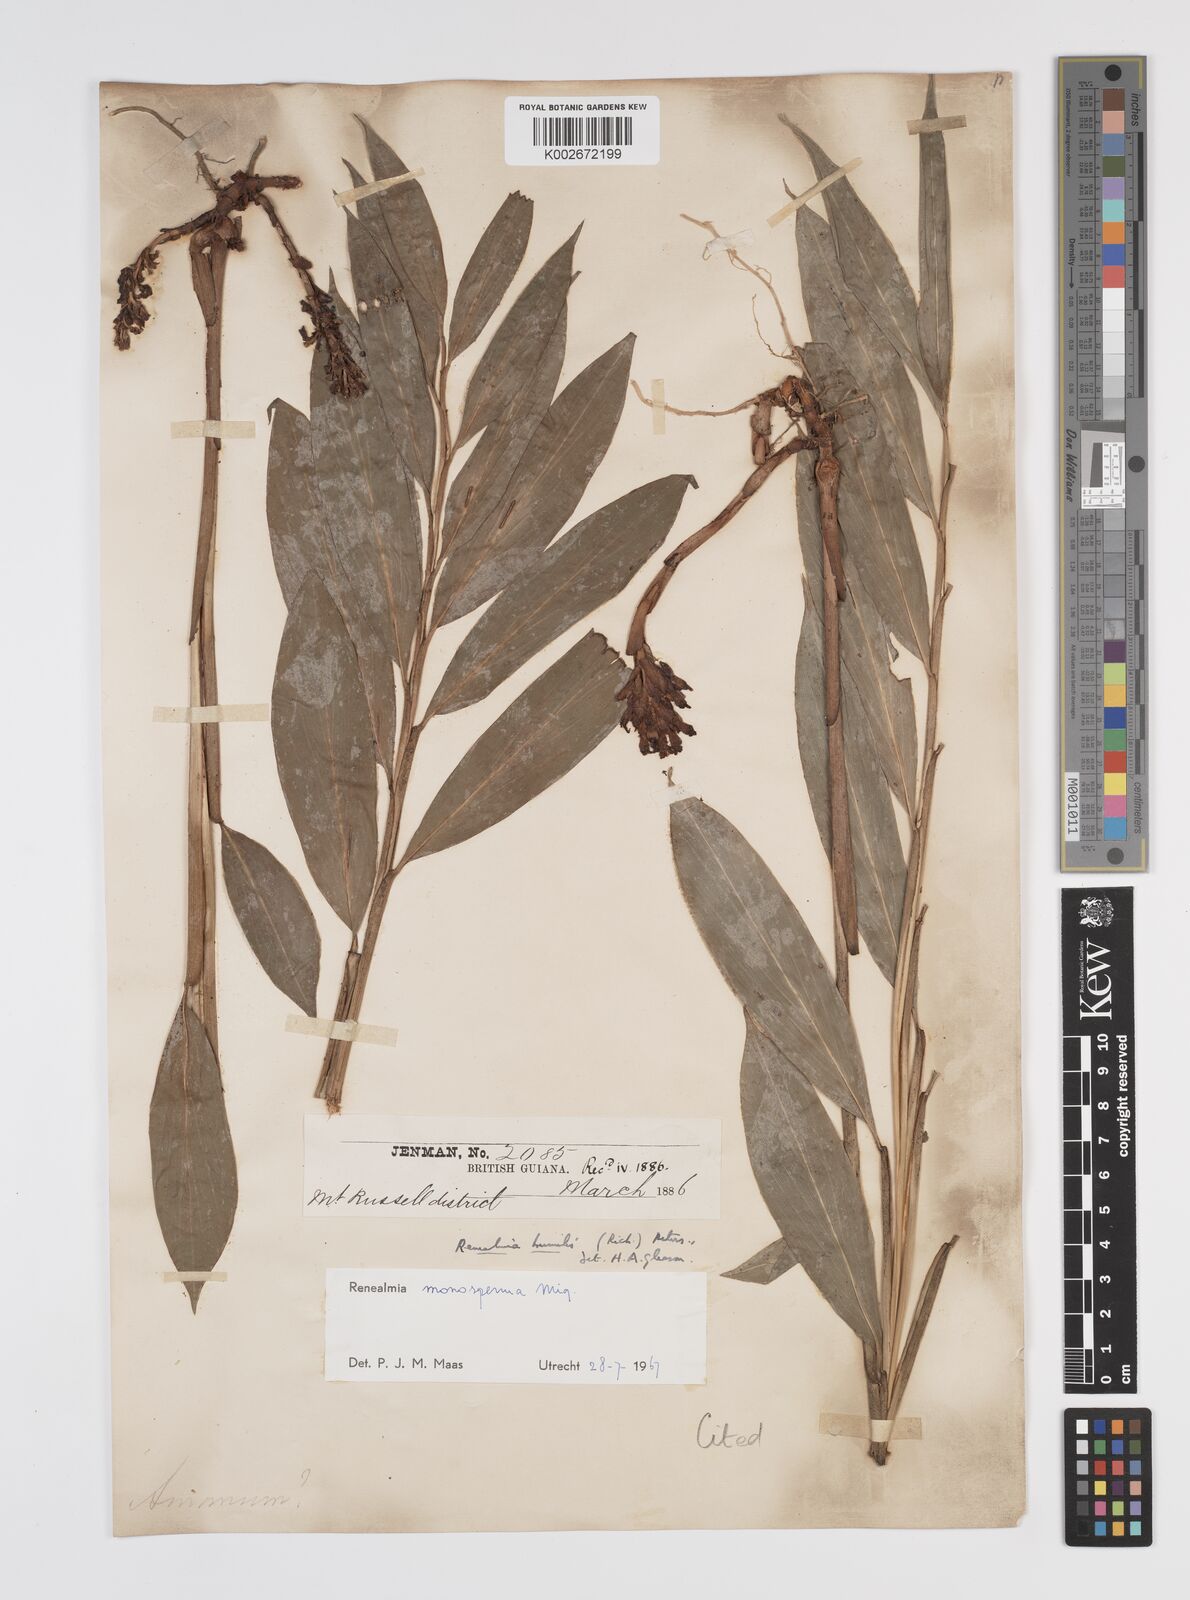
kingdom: Plantae
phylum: Tracheophyta
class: Liliopsida
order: Zingiberales
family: Zingiberaceae
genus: Renealmia
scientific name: Renealmia monosperma
